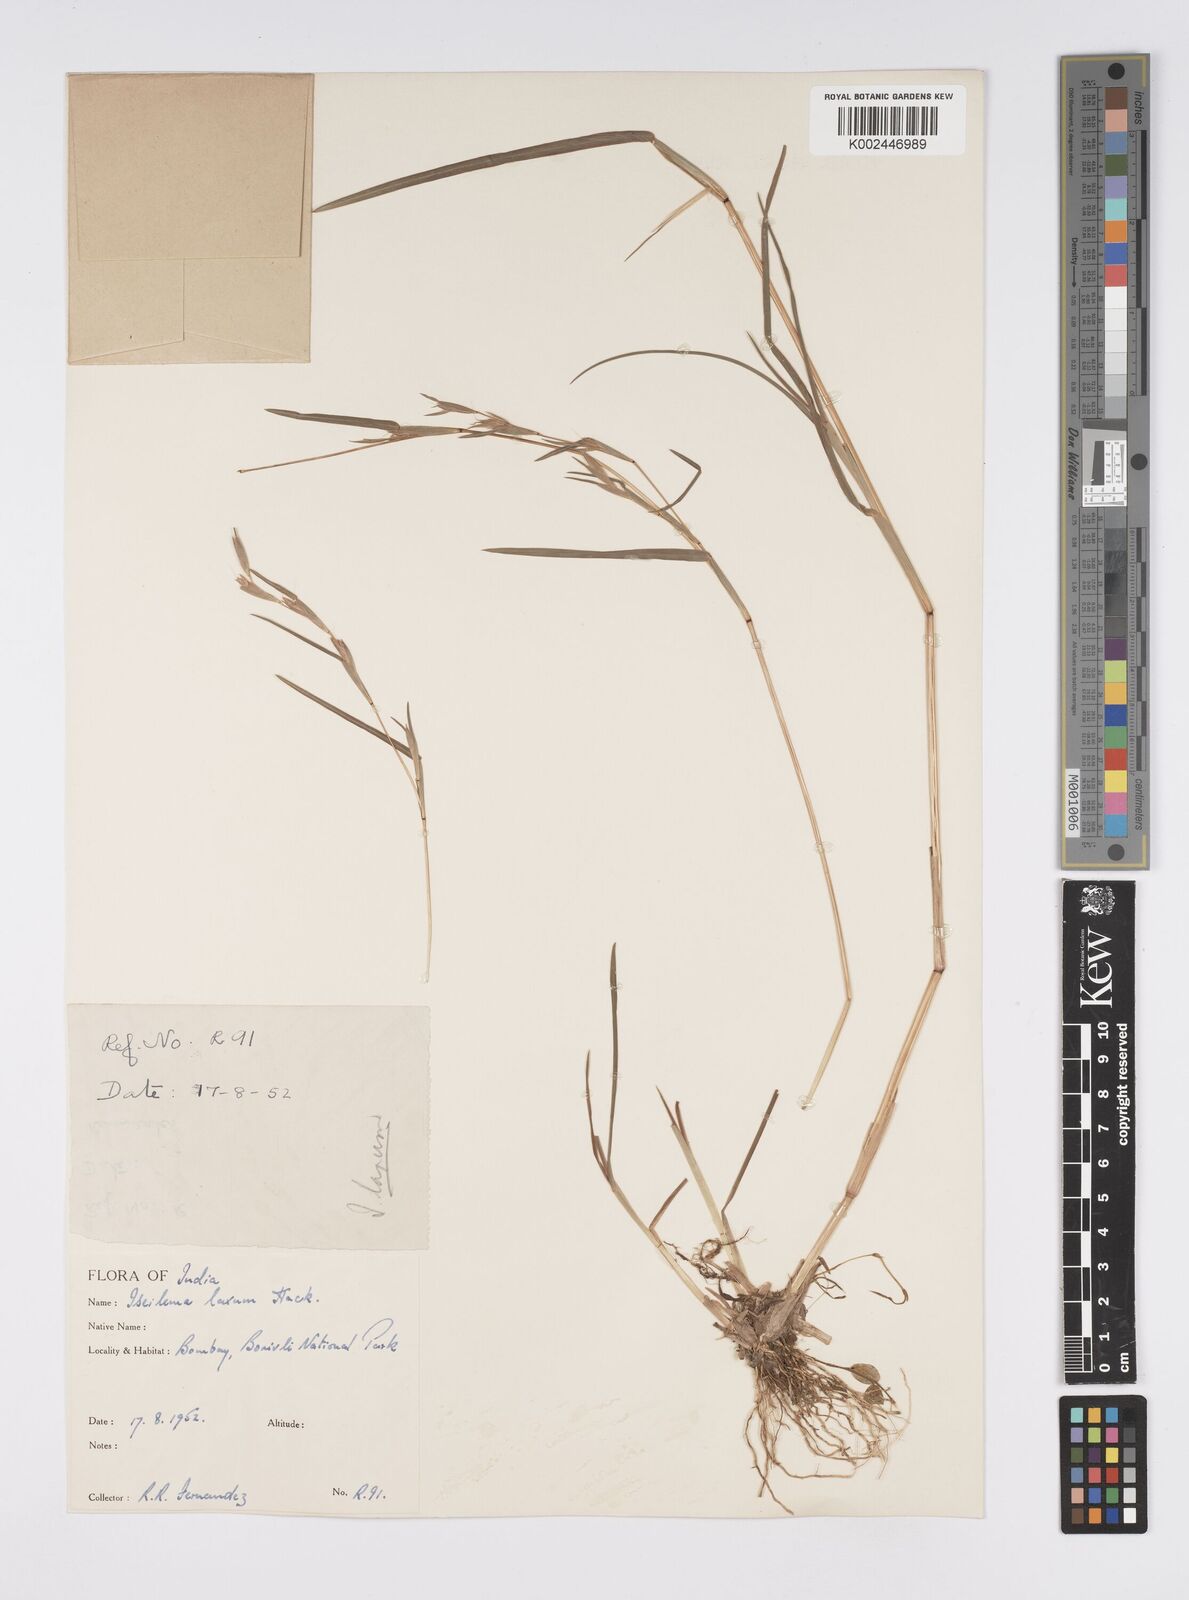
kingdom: Plantae
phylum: Tracheophyta
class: Liliopsida
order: Poales
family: Poaceae
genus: Iseilema
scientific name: Iseilema prostratum
